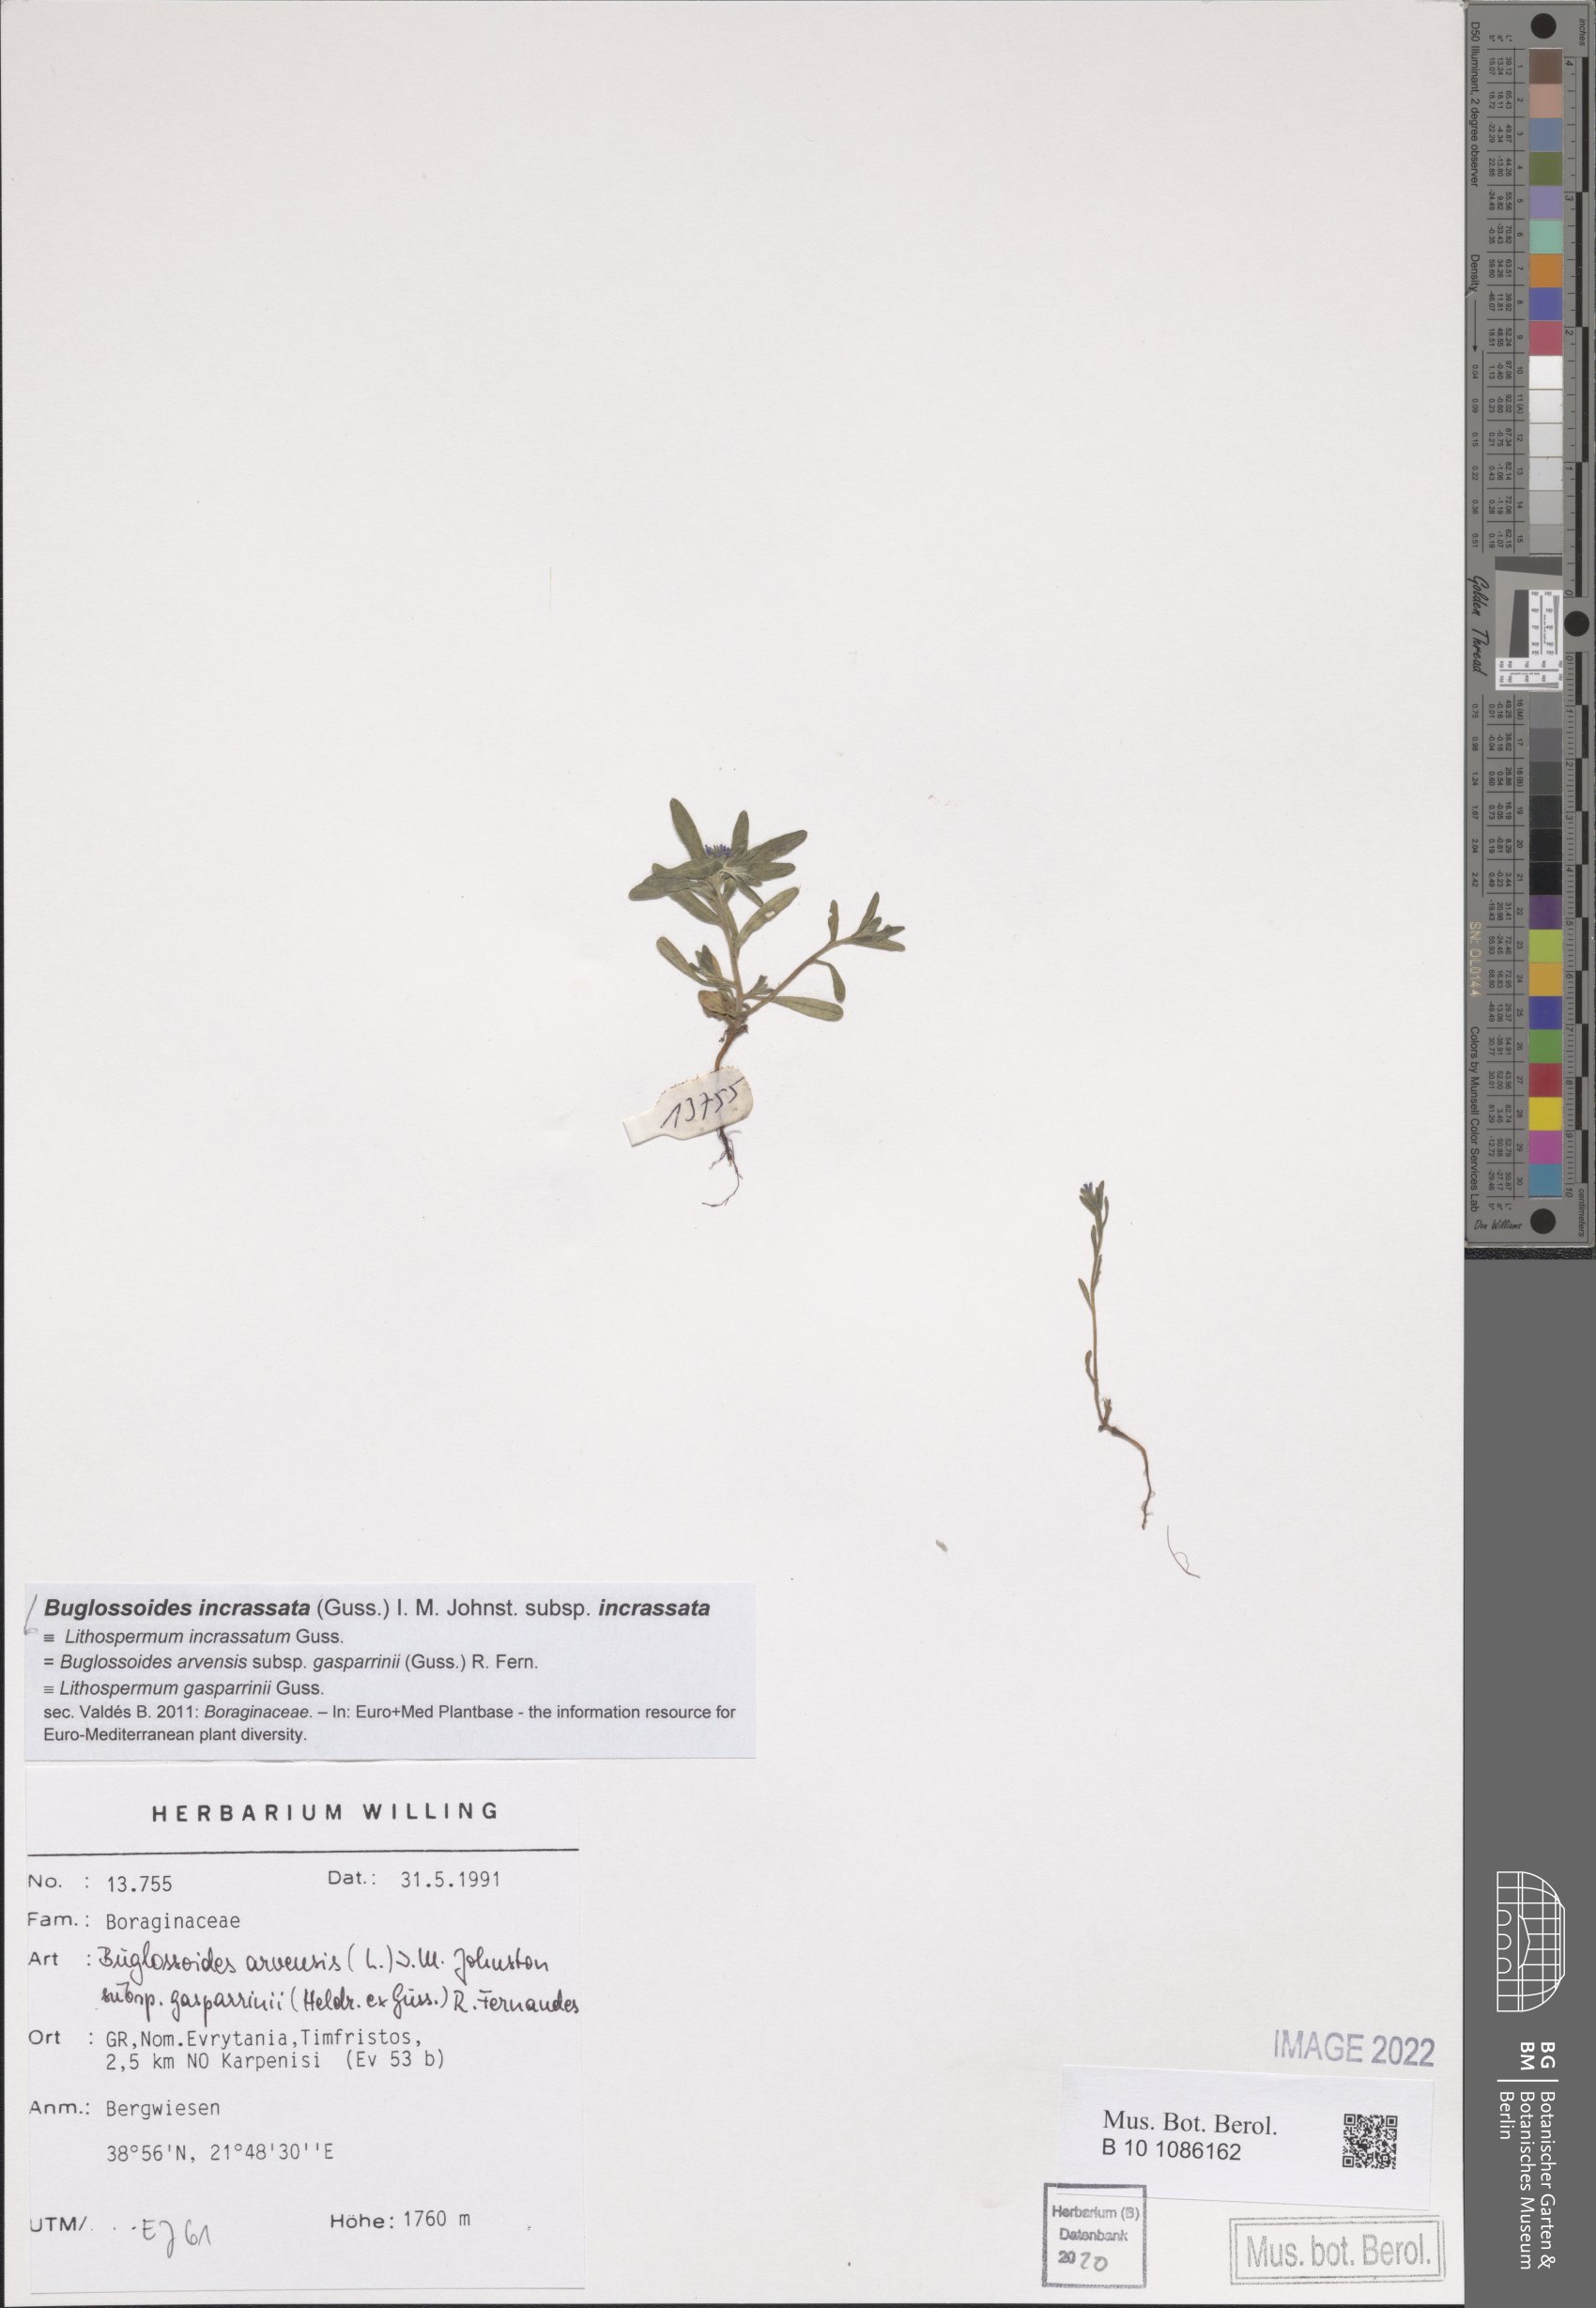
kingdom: Plantae
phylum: Tracheophyta
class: Magnoliopsida
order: Boraginales
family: Boraginaceae
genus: Buglossoides
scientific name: Buglossoides incrassata
